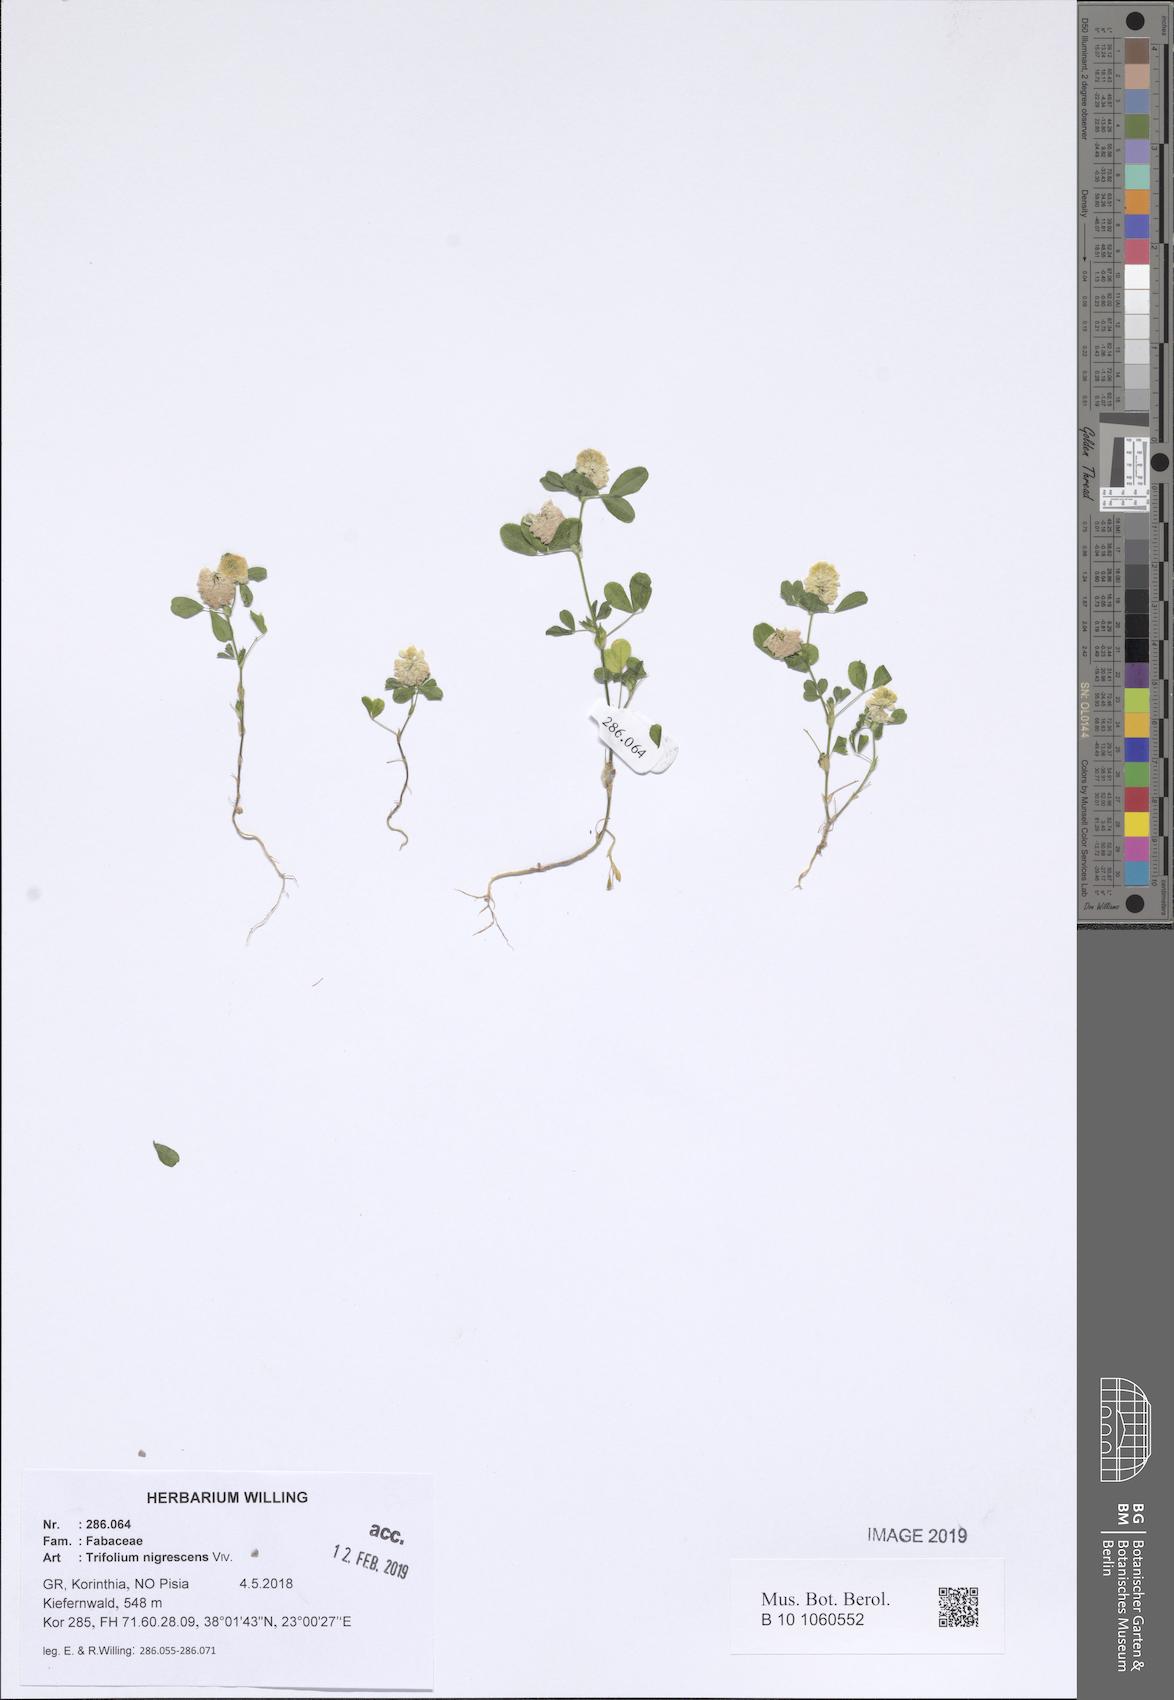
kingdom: Plantae
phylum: Tracheophyta
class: Magnoliopsida
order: Fabales
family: Fabaceae
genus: Trifolium
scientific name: Trifolium nigrescens
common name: Small white clover
